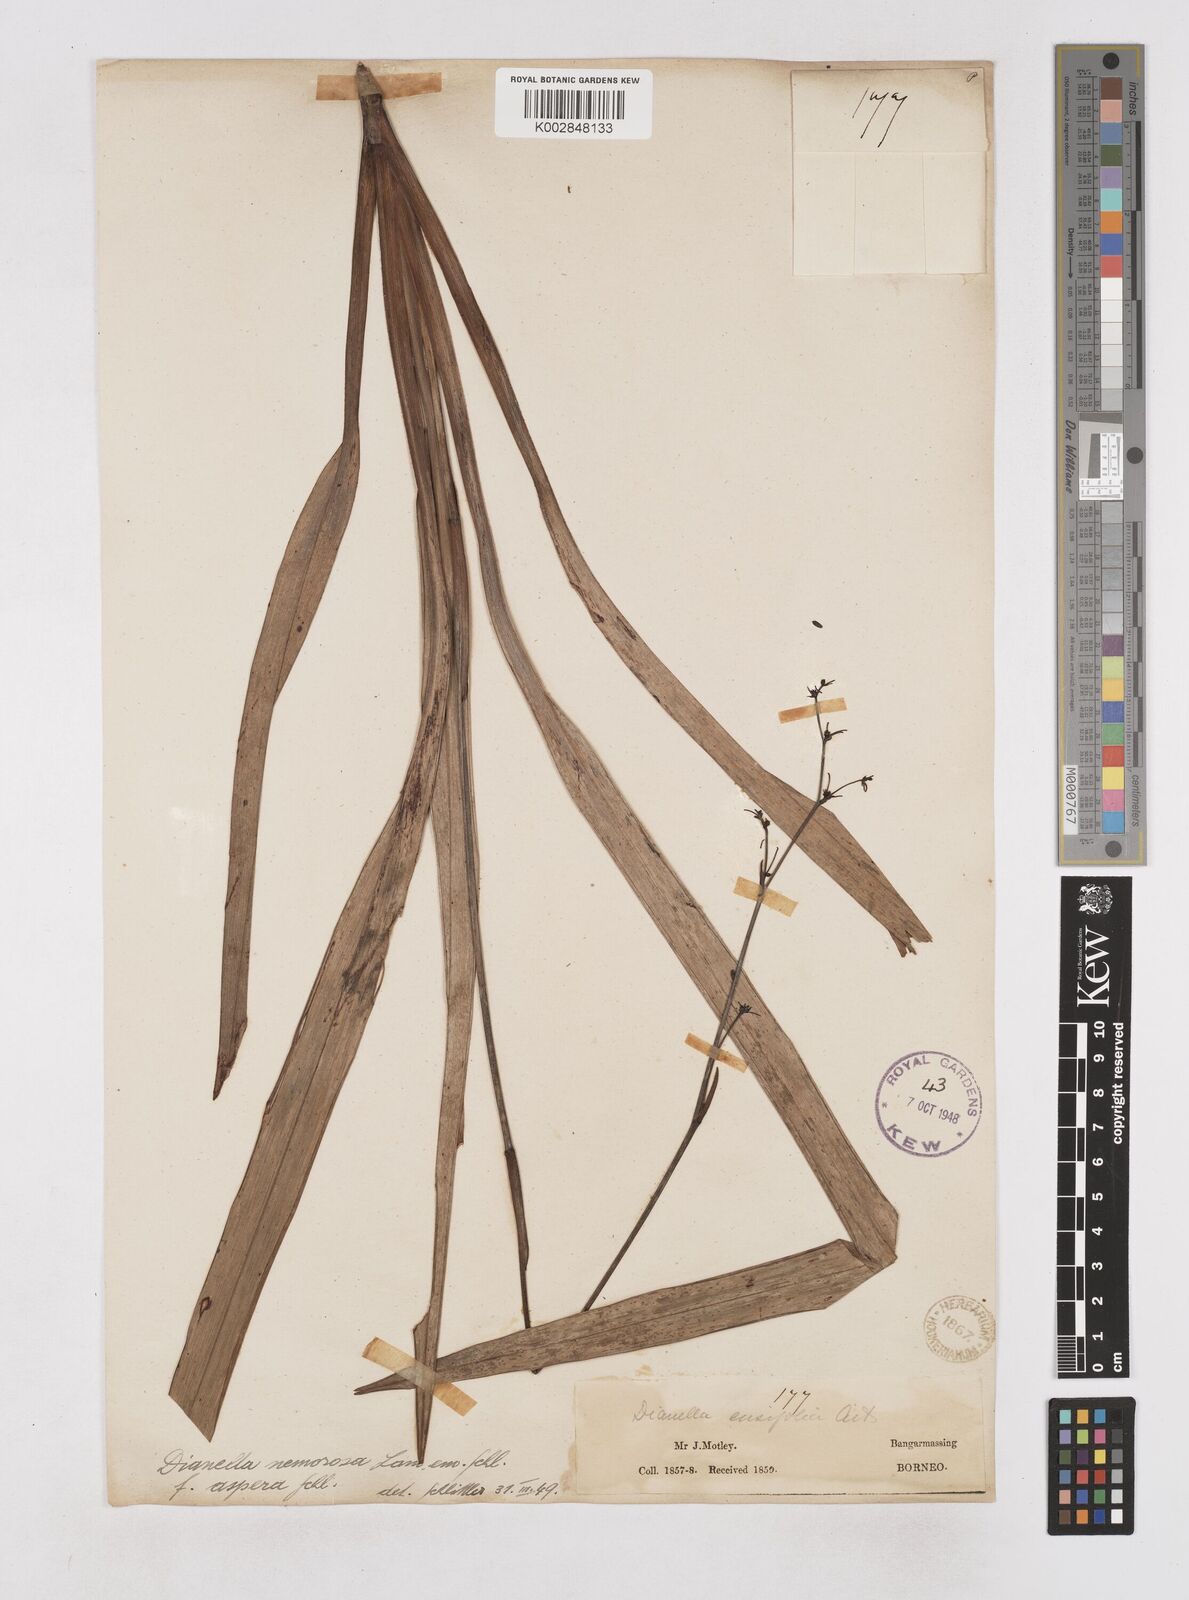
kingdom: Plantae
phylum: Tracheophyta
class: Liliopsida
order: Asparagales
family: Asphodelaceae
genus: Dianella
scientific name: Dianella ensifolia
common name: New zealand lilyplant
